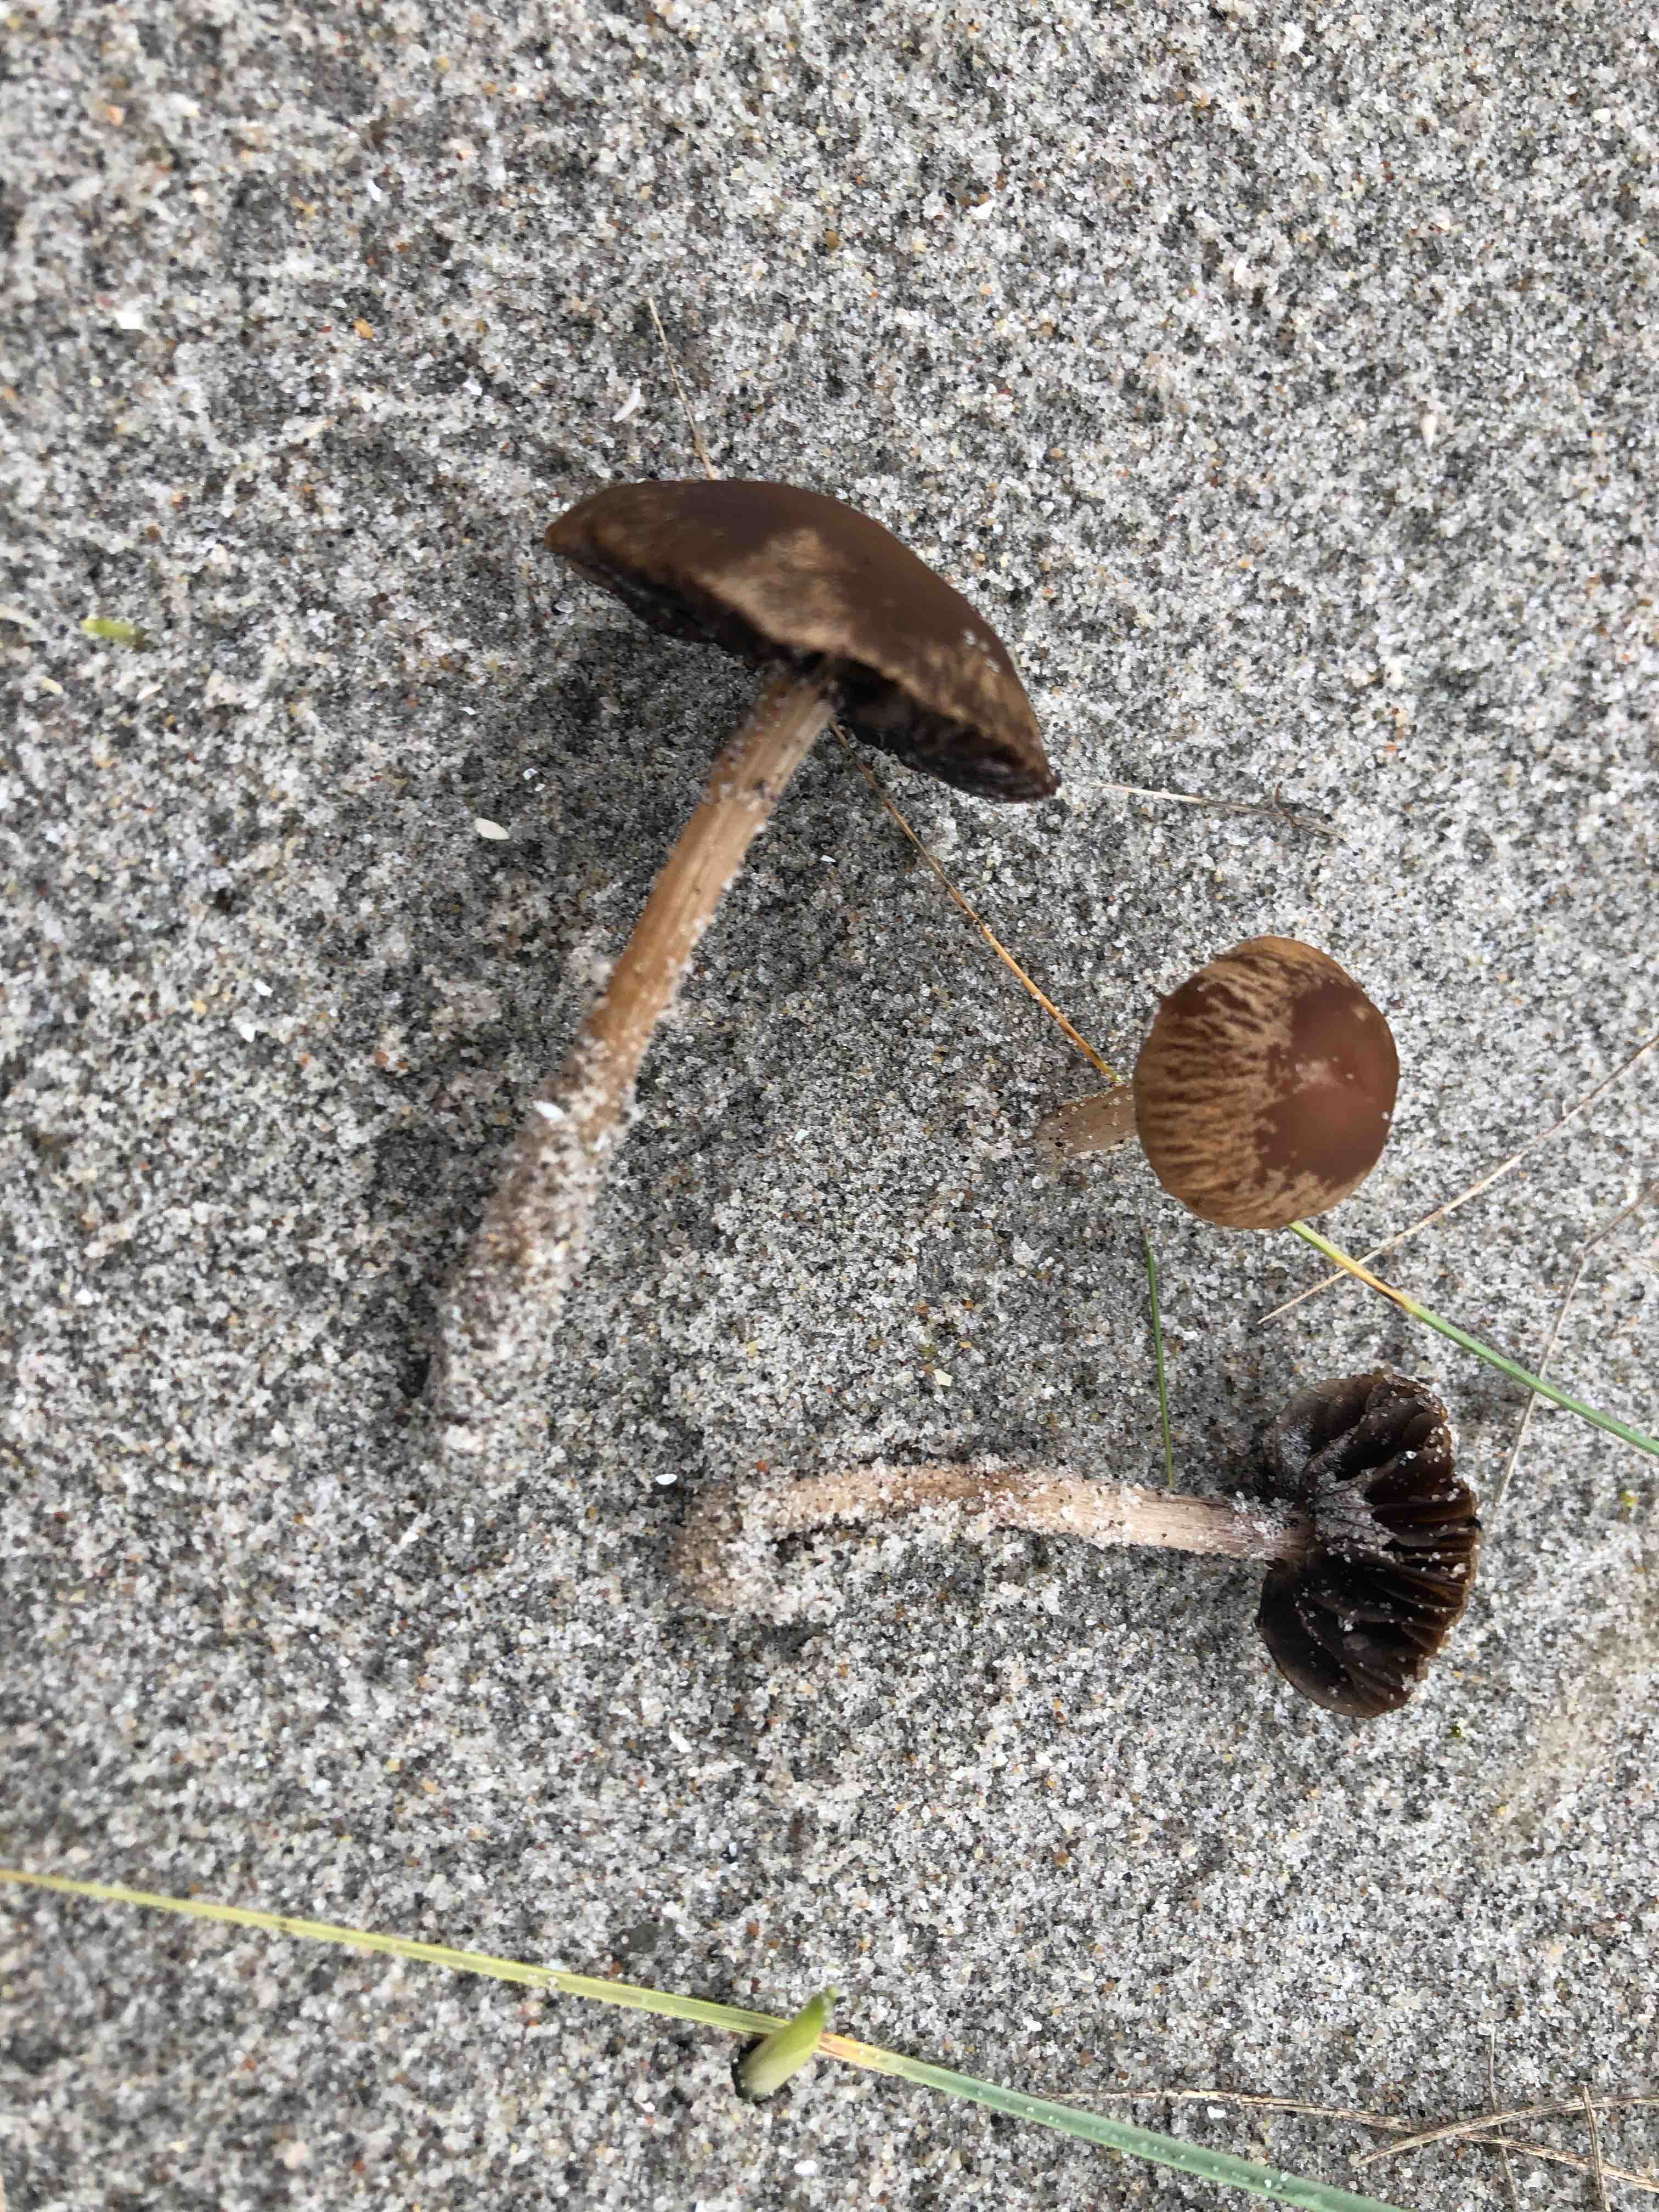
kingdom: Fungi
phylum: Basidiomycota
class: Agaricomycetes
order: Agaricales
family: Psathyrellaceae
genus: Psathyrella
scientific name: Psathyrella ammophila
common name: klit-mørkhat
